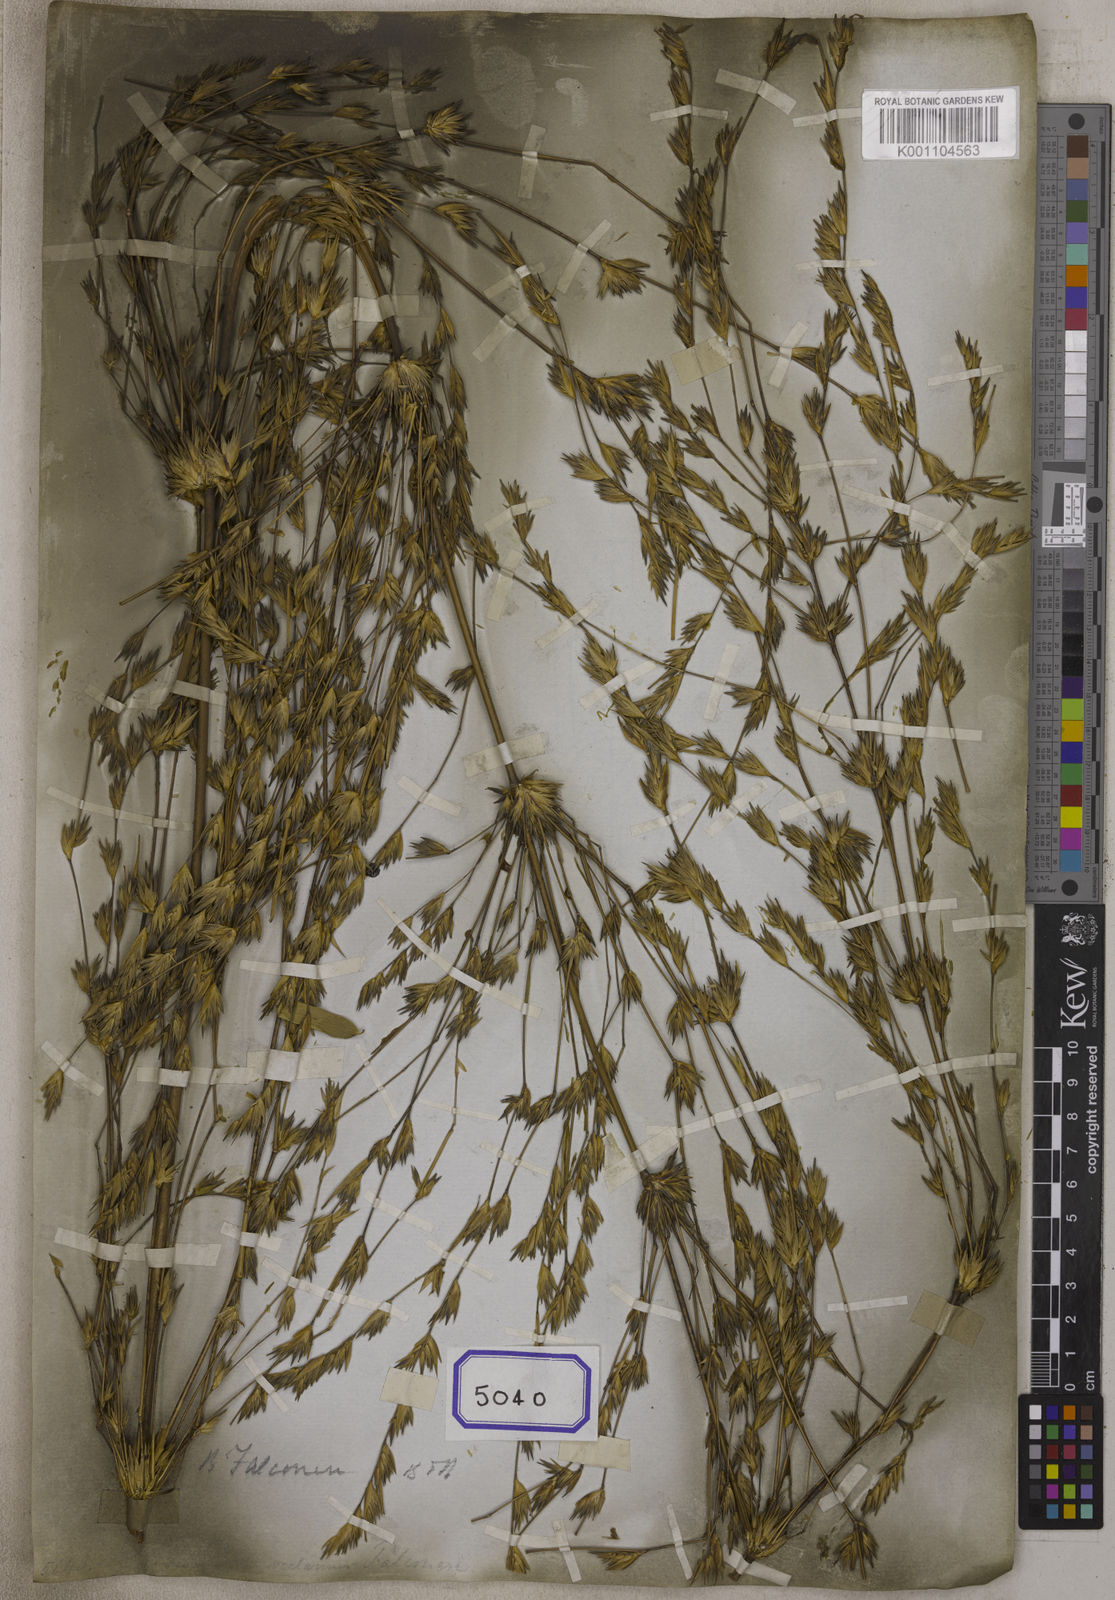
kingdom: Plantae
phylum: Tracheophyta
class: Liliopsida
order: Poales
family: Poaceae
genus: Bambusa
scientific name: Bambusa
